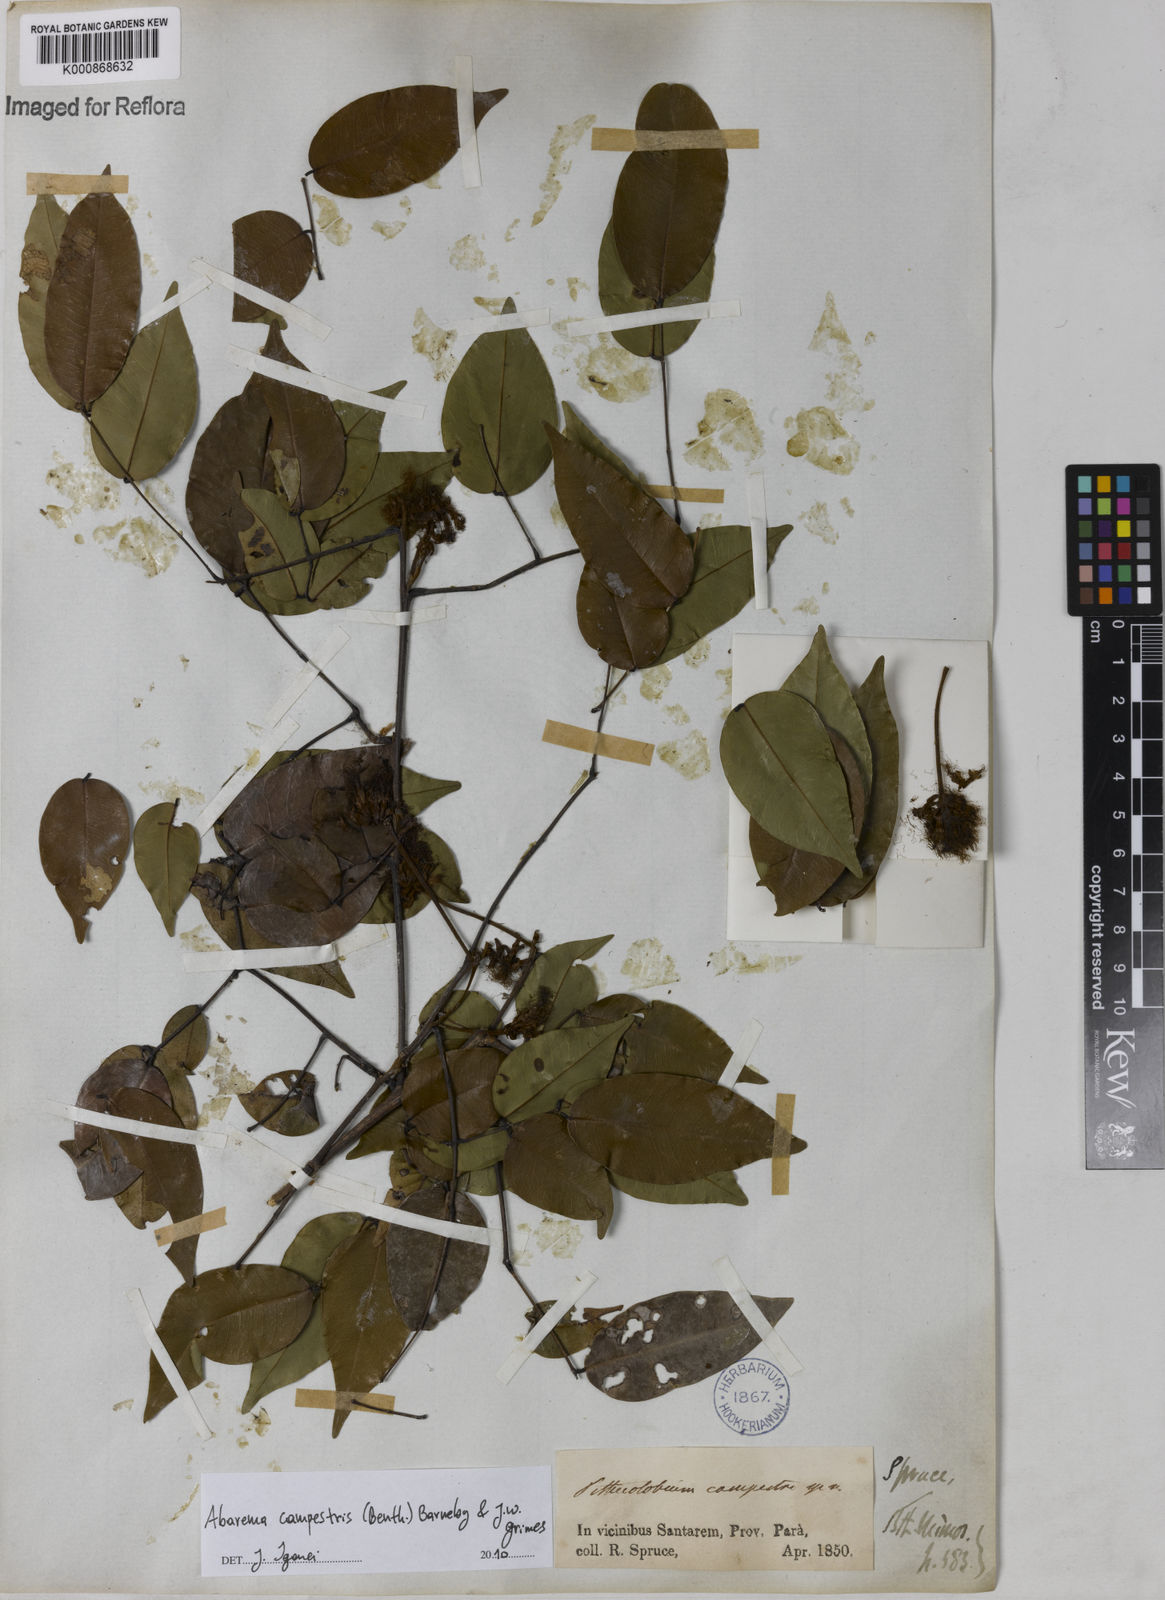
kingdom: Plantae
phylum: Tracheophyta
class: Magnoliopsida
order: Fabales
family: Fabaceae
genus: Jupunba
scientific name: Jupunba campestris
